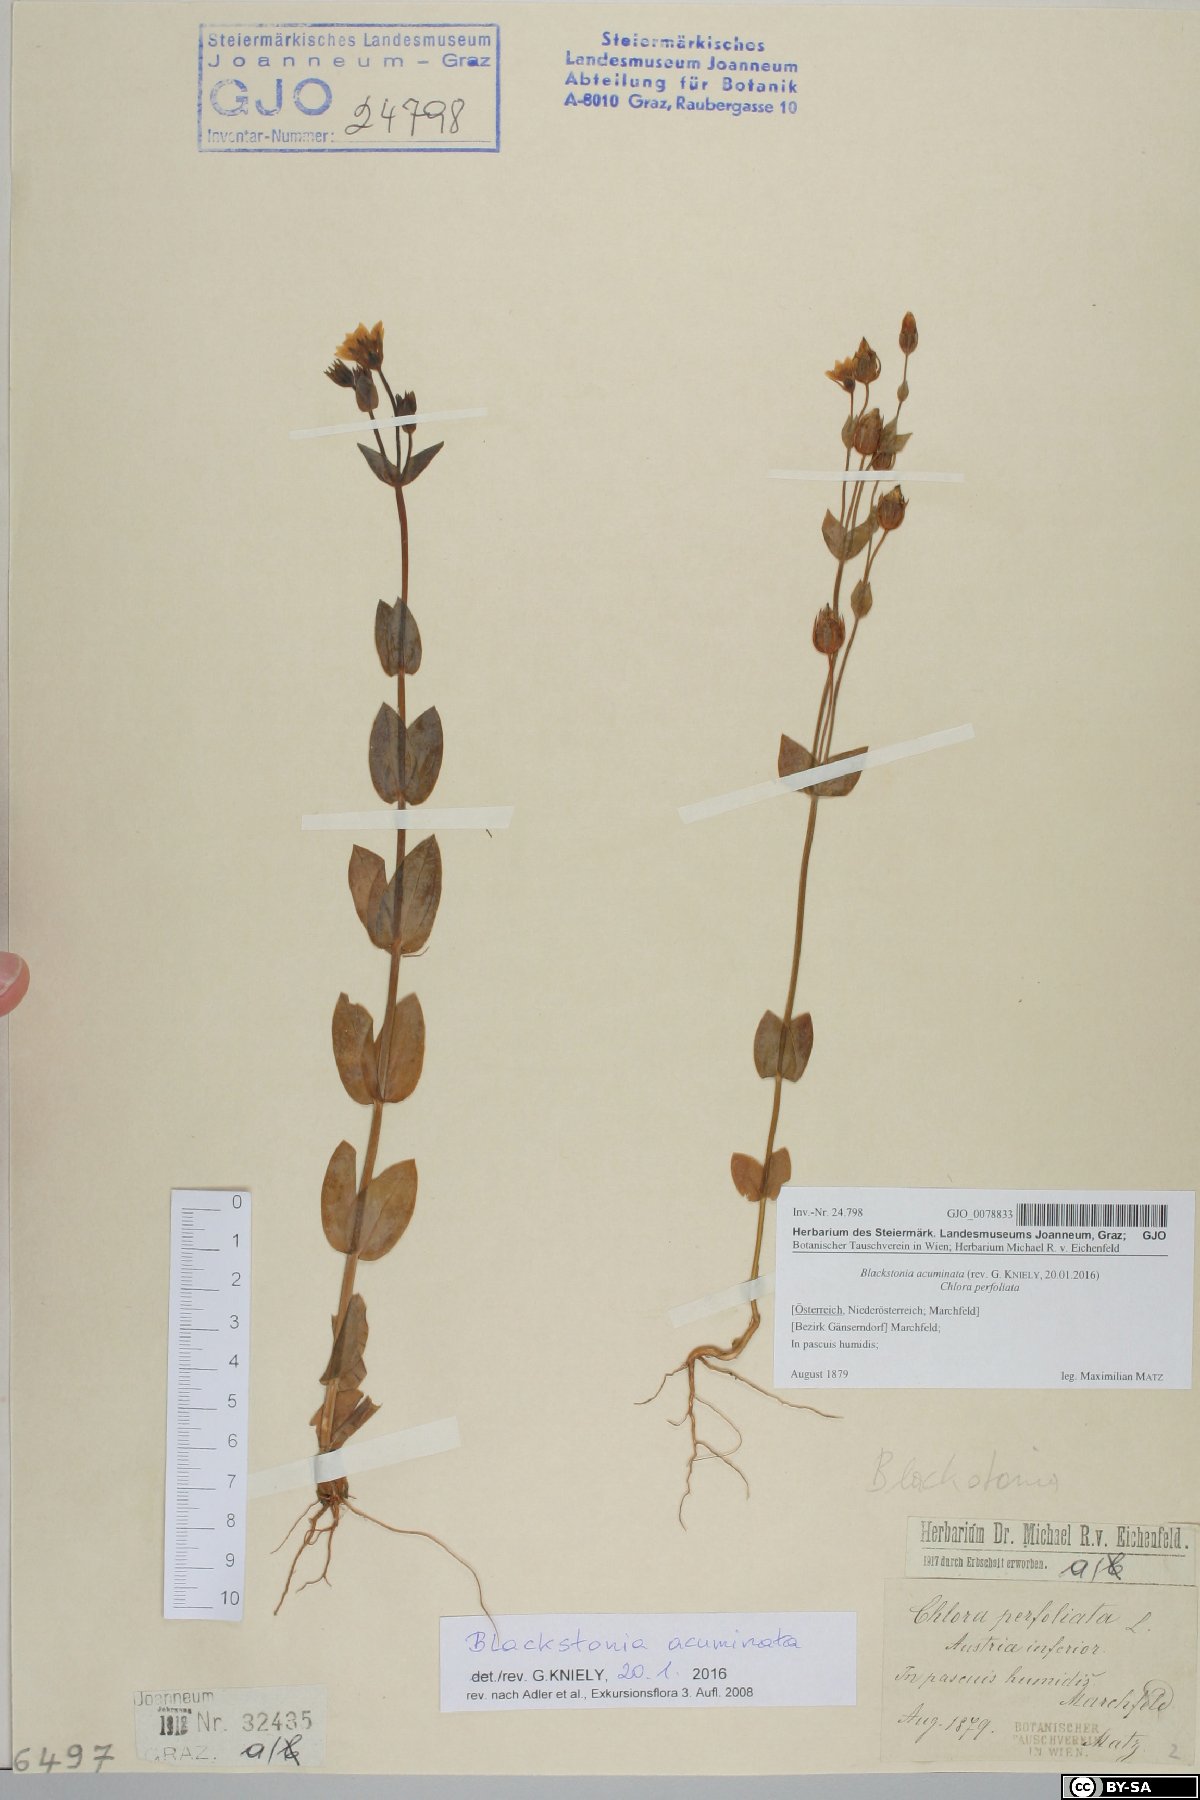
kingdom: Plantae
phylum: Tracheophyta
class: Magnoliopsida
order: Gentianales
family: Gentianaceae
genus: Blackstonia
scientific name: Blackstonia acuminata
